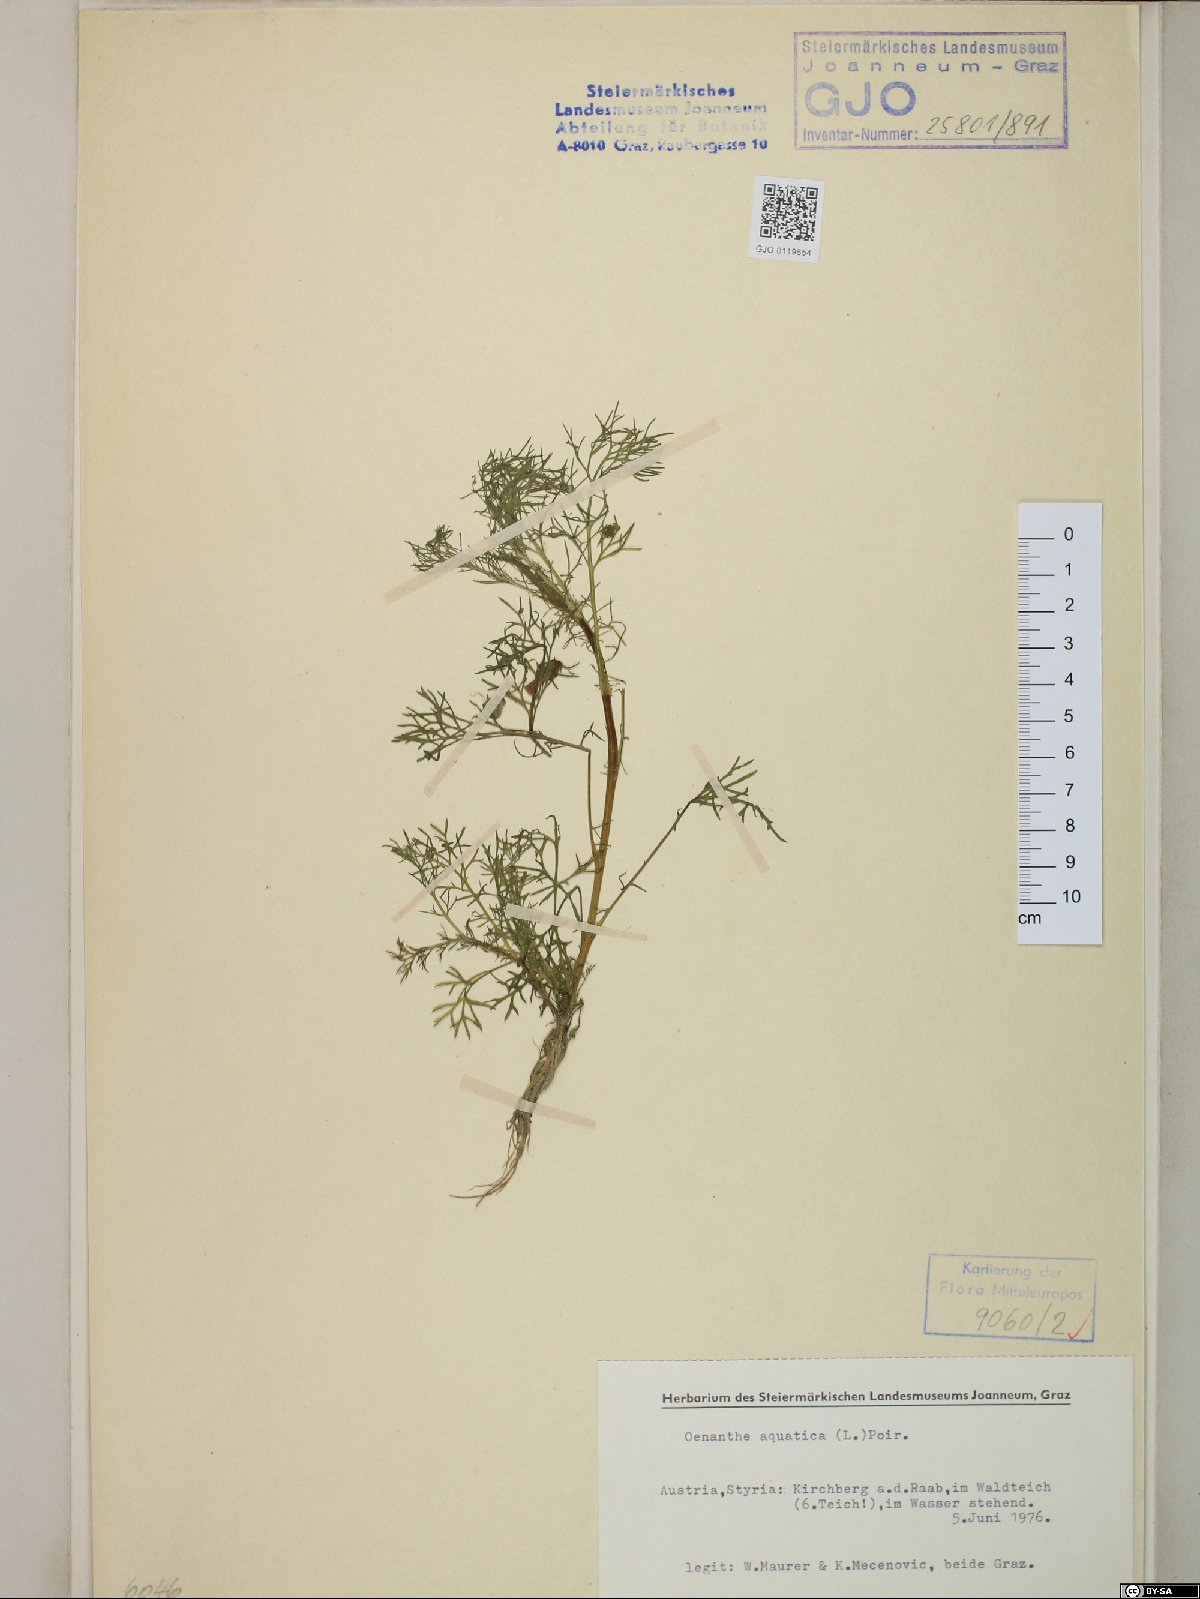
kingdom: Plantae
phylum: Tracheophyta
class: Magnoliopsida
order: Apiales
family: Apiaceae
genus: Oenanthe
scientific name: Oenanthe aquatica
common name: Fine-leaved water-dropwort
